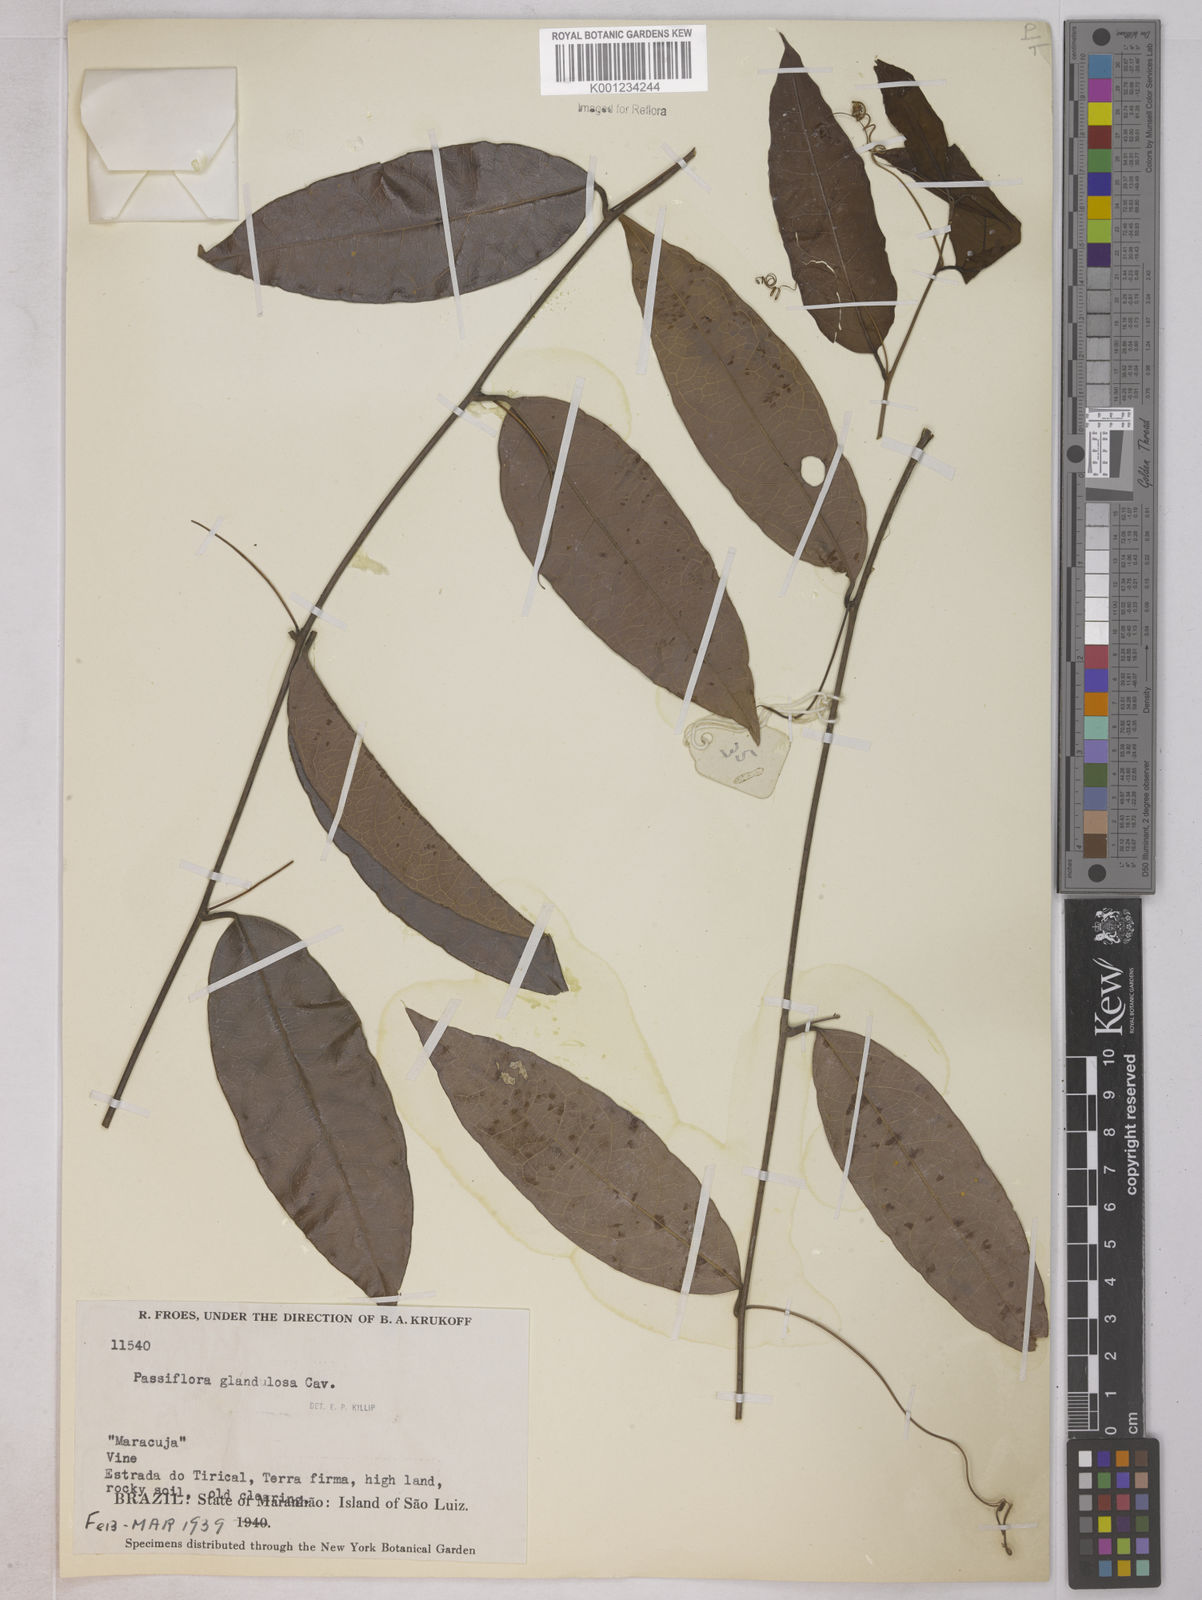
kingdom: Plantae
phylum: Tracheophyta
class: Magnoliopsida
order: Malpighiales
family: Passifloraceae
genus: Passiflora
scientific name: Passiflora glandulosa
